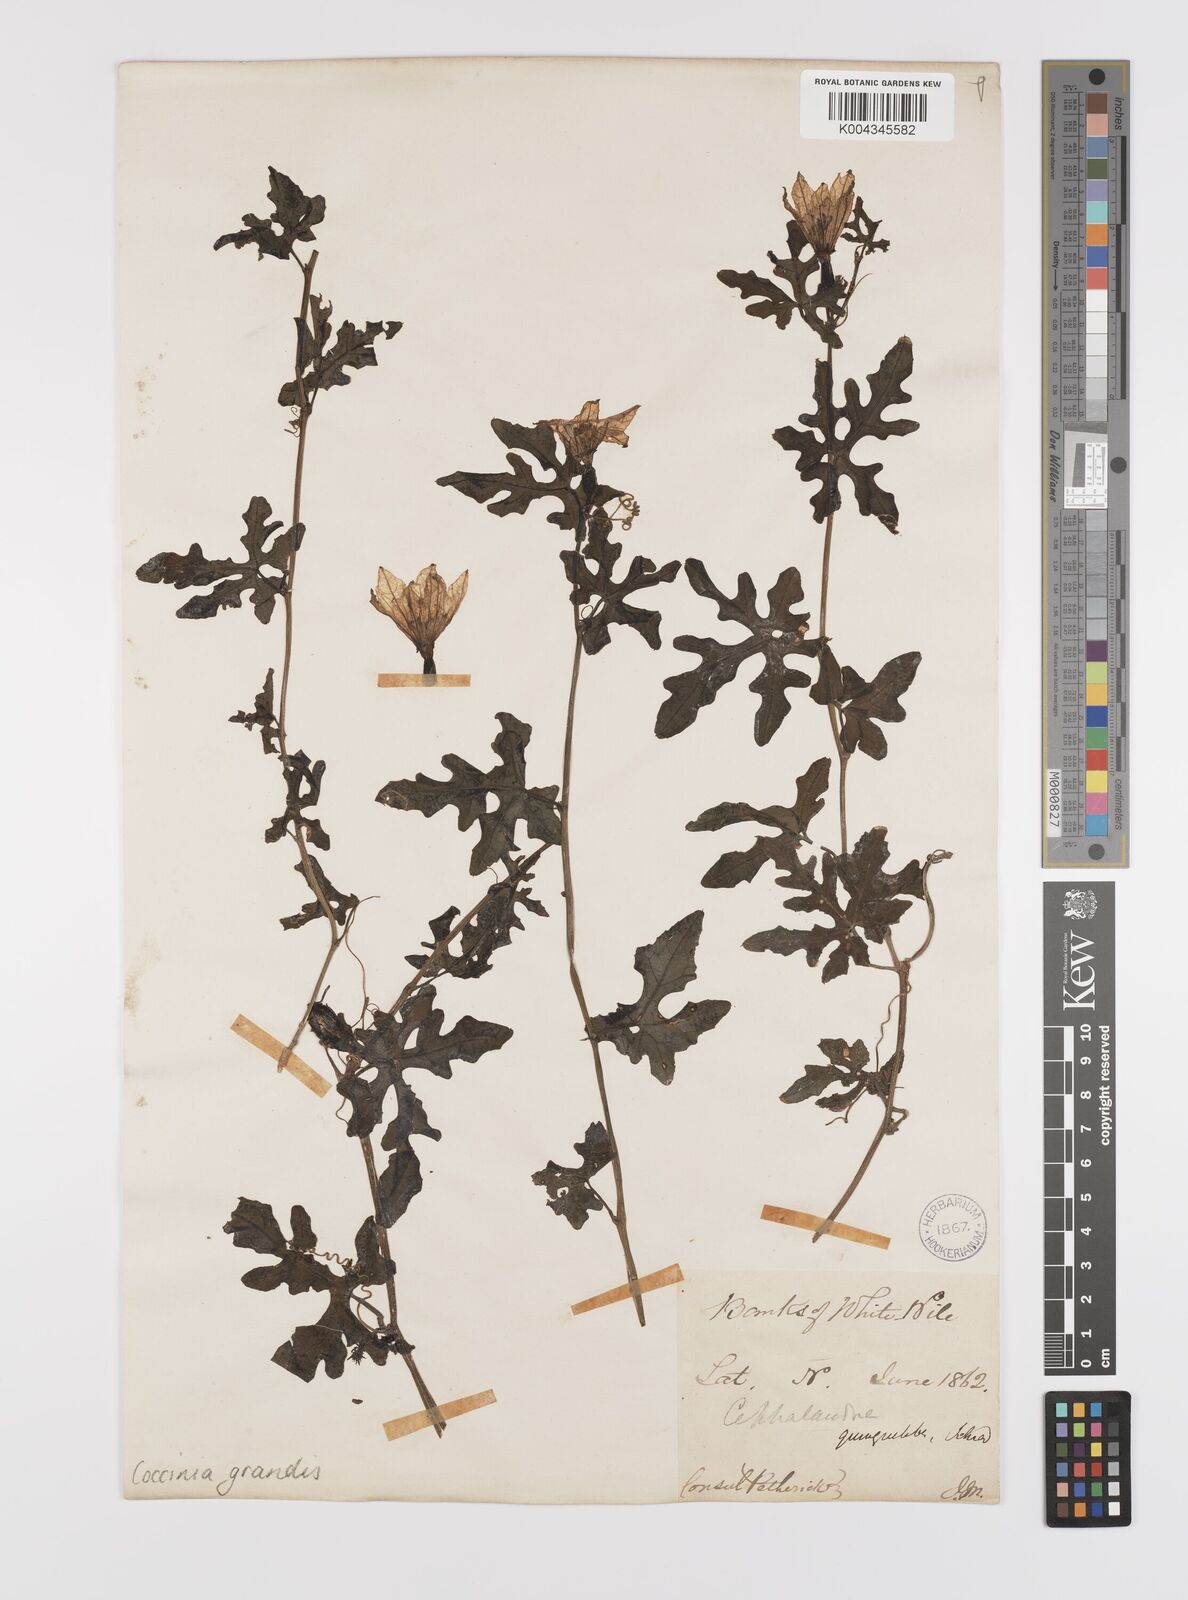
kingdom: Plantae
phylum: Tracheophyta
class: Magnoliopsida
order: Cucurbitales
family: Cucurbitaceae
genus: Coccinia
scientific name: Coccinia grandis
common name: Ivy gourd
